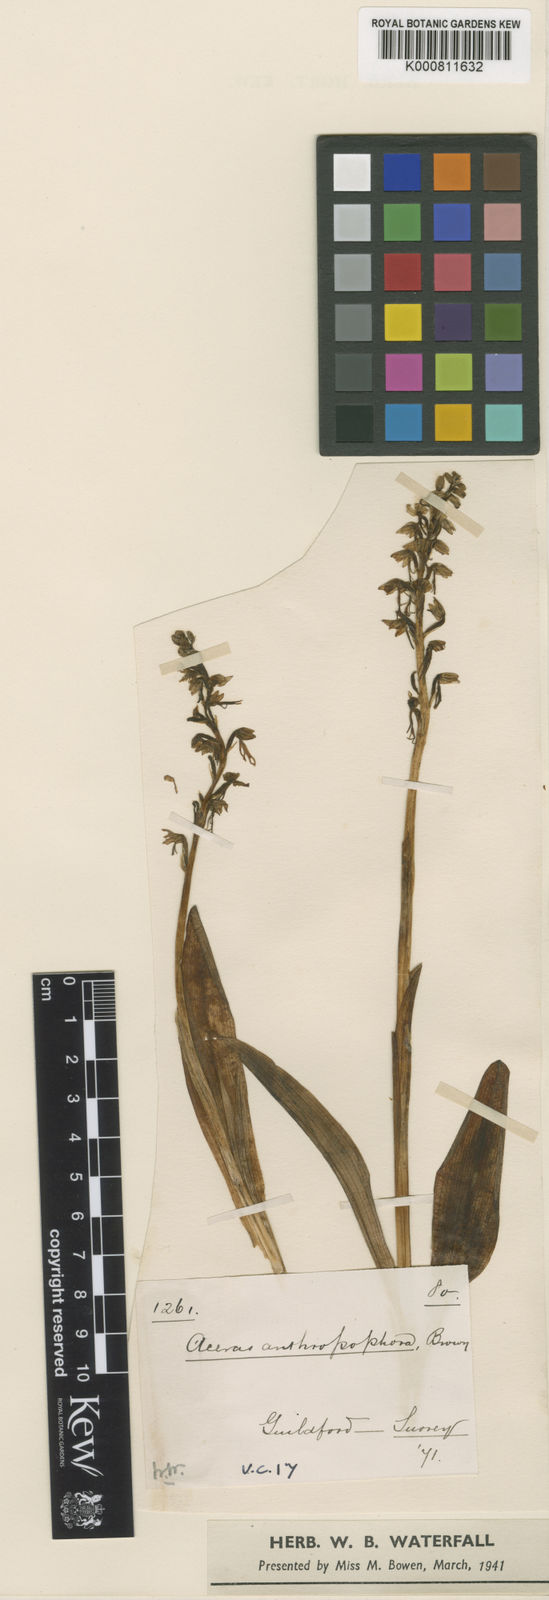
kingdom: Plantae
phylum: Tracheophyta
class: Liliopsida
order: Asparagales
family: Orchidaceae
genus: Orchis
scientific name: Orchis
